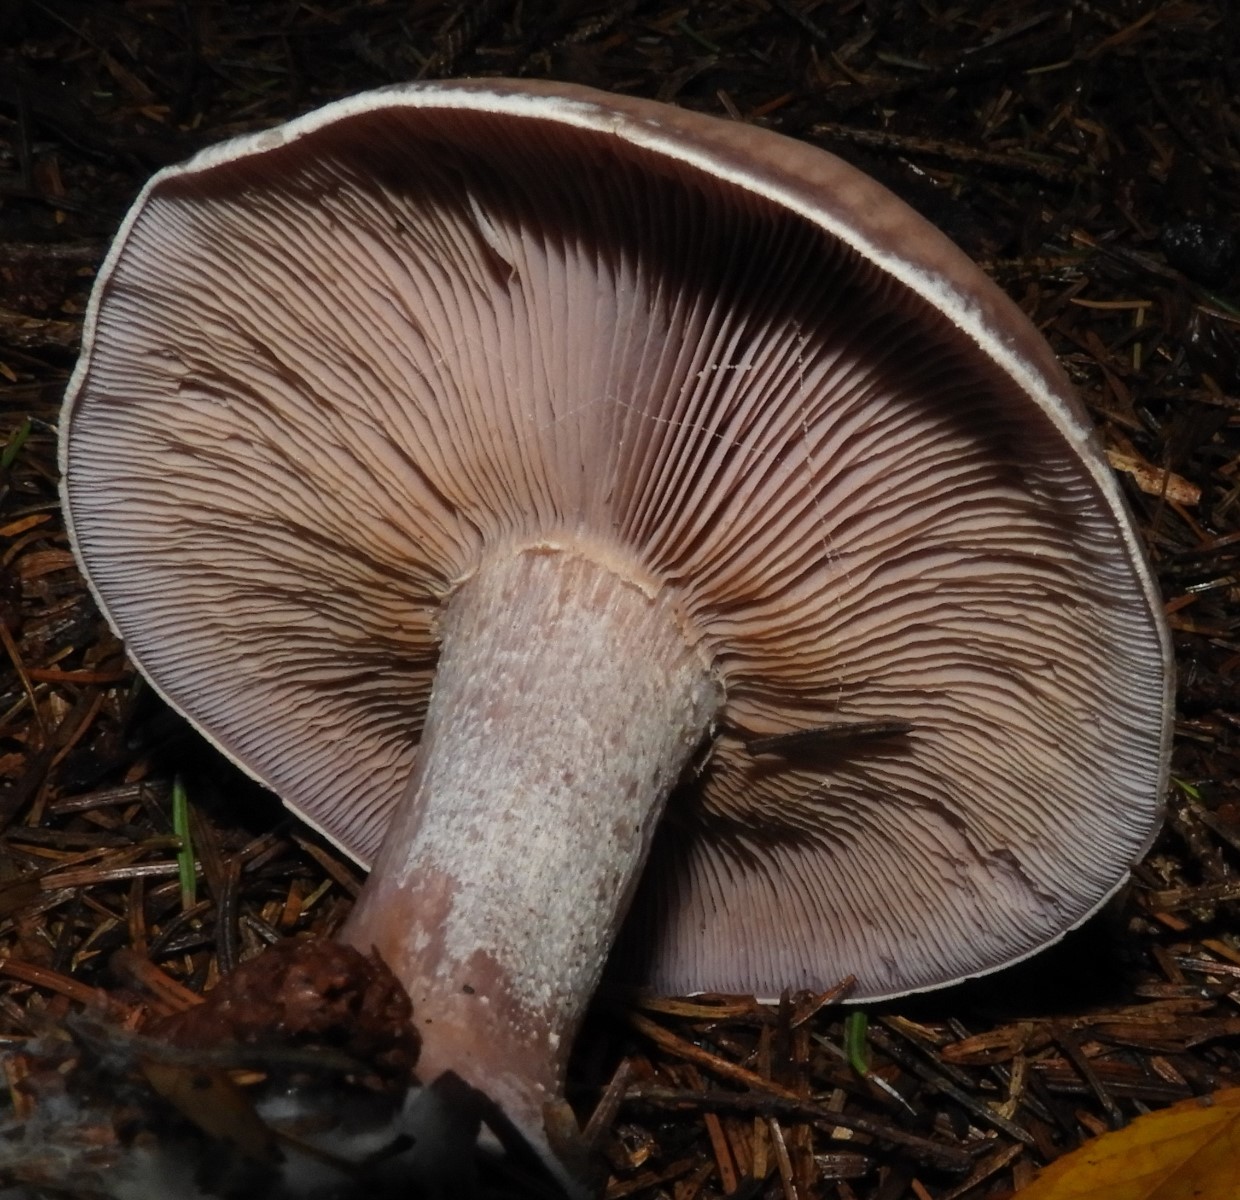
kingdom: Fungi
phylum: Basidiomycota
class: Agaricomycetes
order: Agaricales
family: Tricholomataceae
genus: Lepista
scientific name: Lepista nuda
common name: violet hekseringshat
